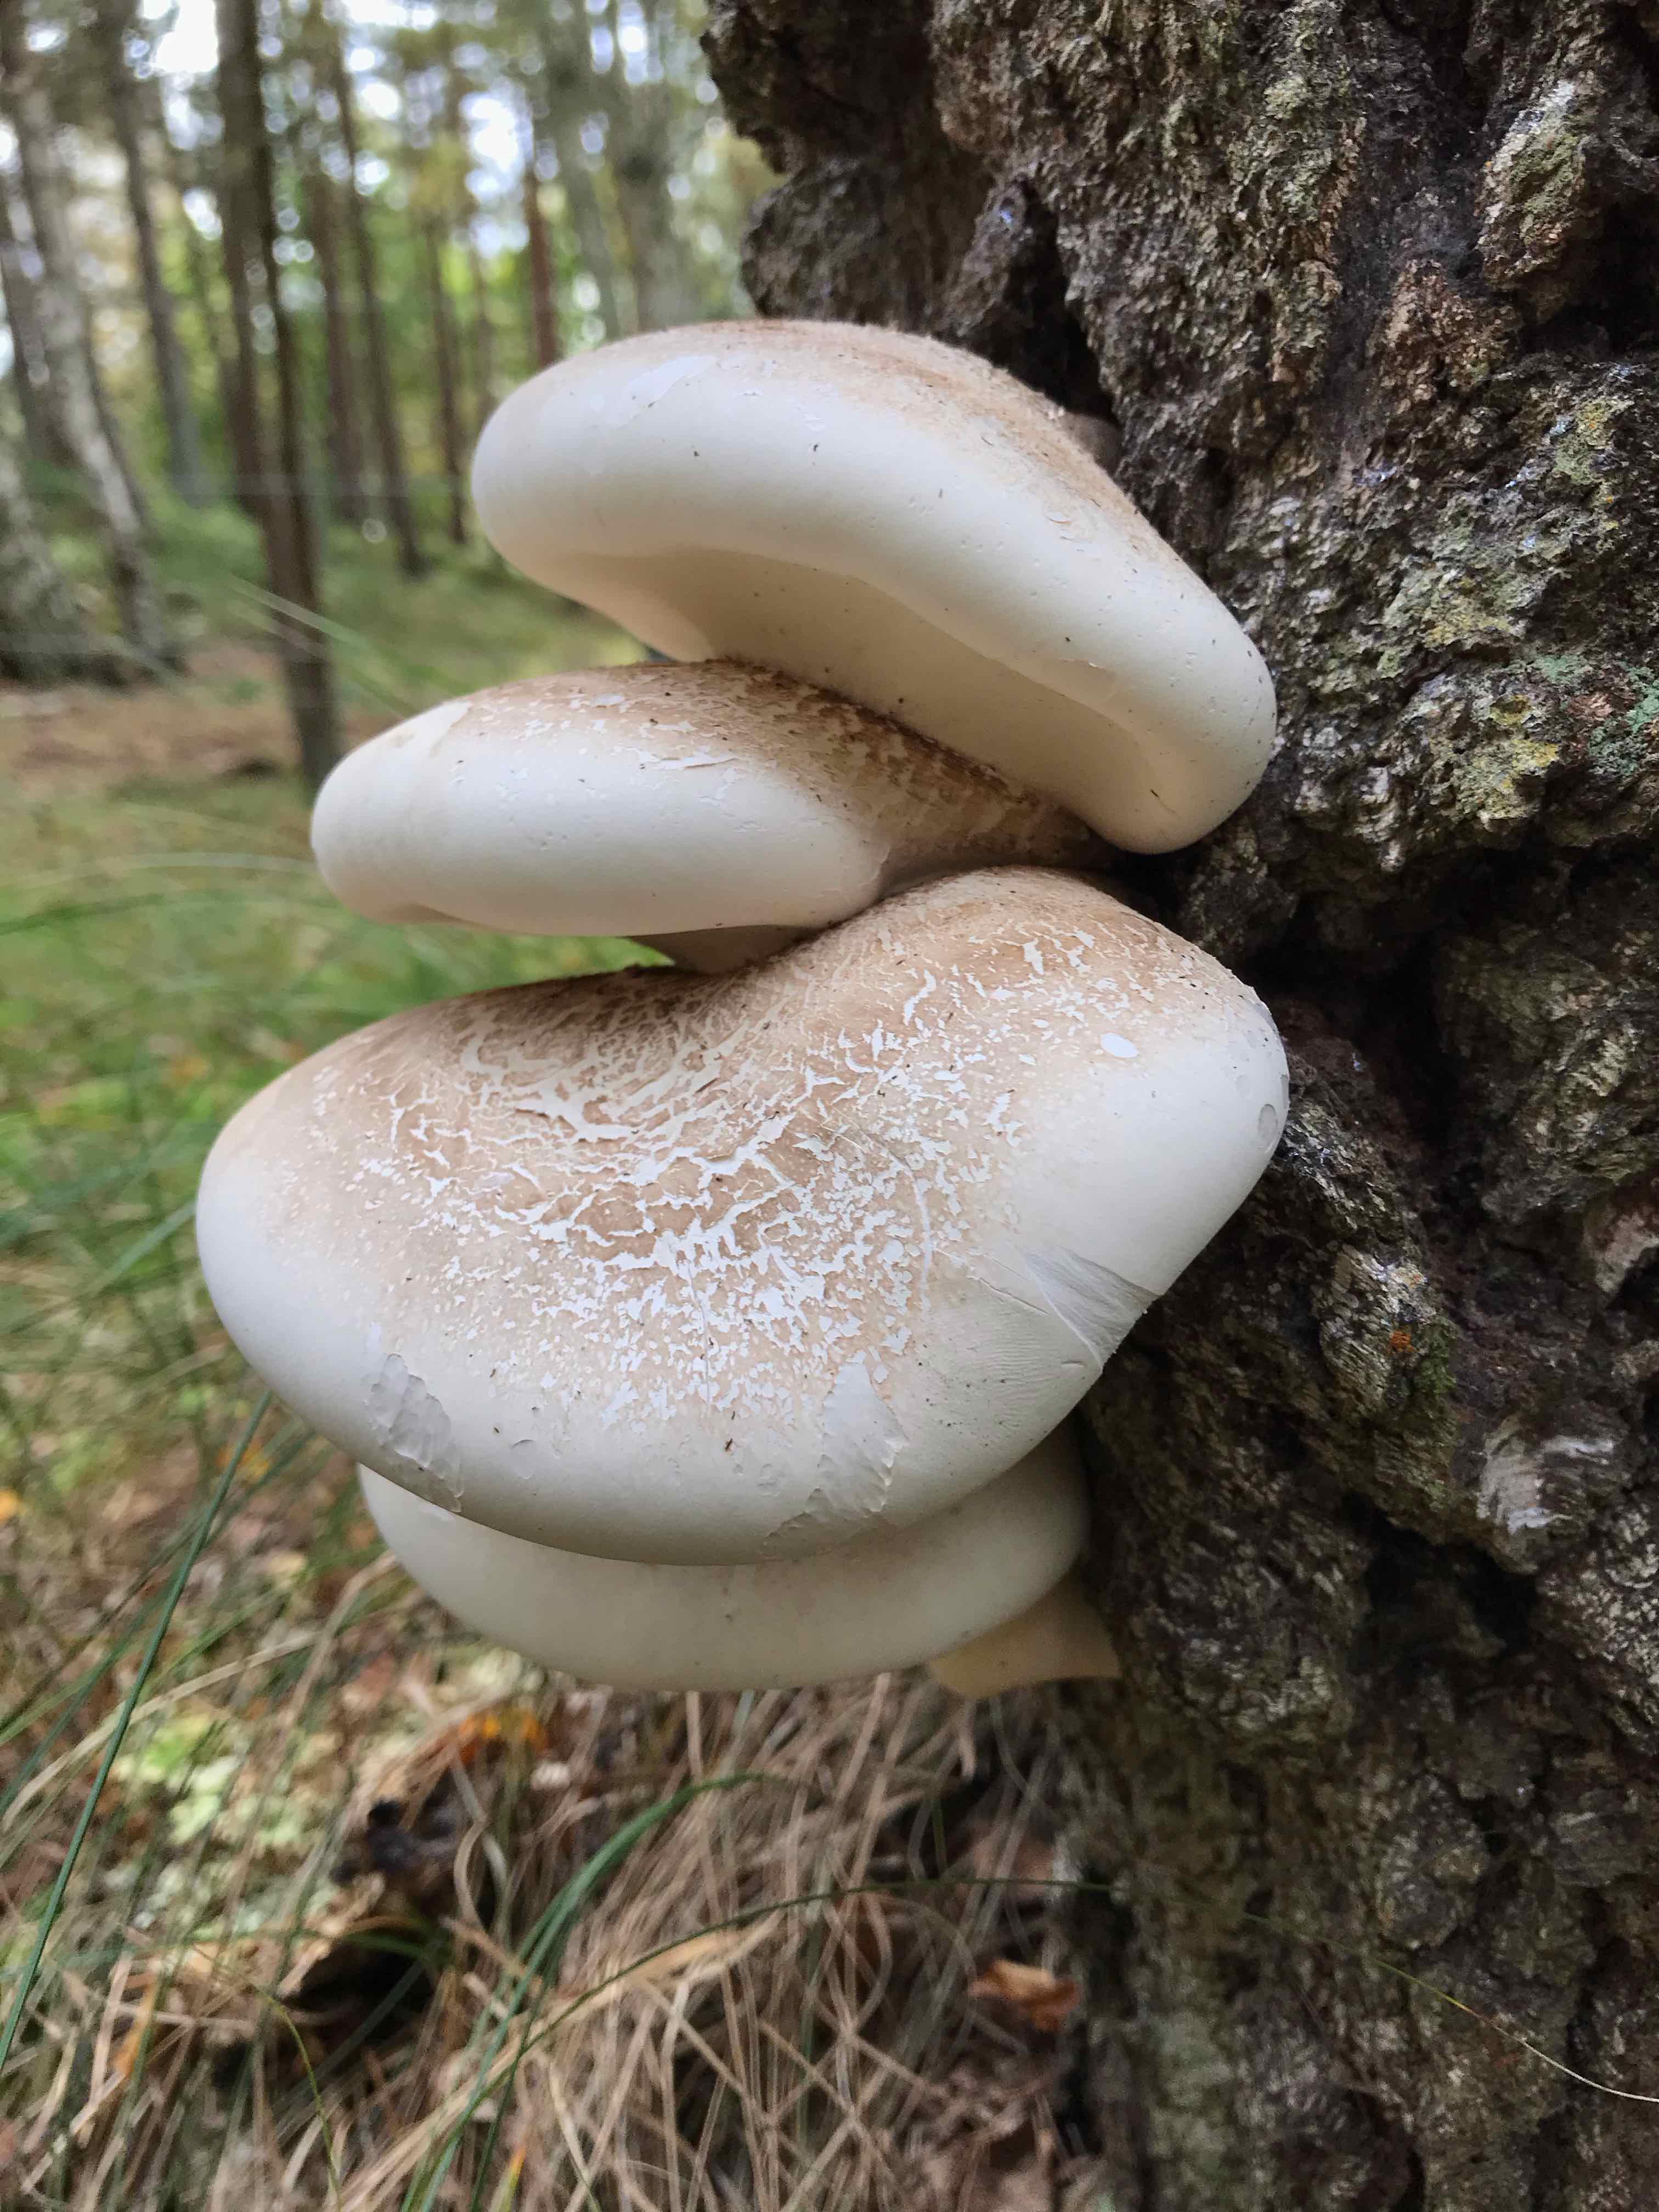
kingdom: Fungi
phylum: Basidiomycota
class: Agaricomycetes
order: Polyporales
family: Fomitopsidaceae
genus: Fomitopsis
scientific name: Fomitopsis betulina
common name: birkeporesvamp
